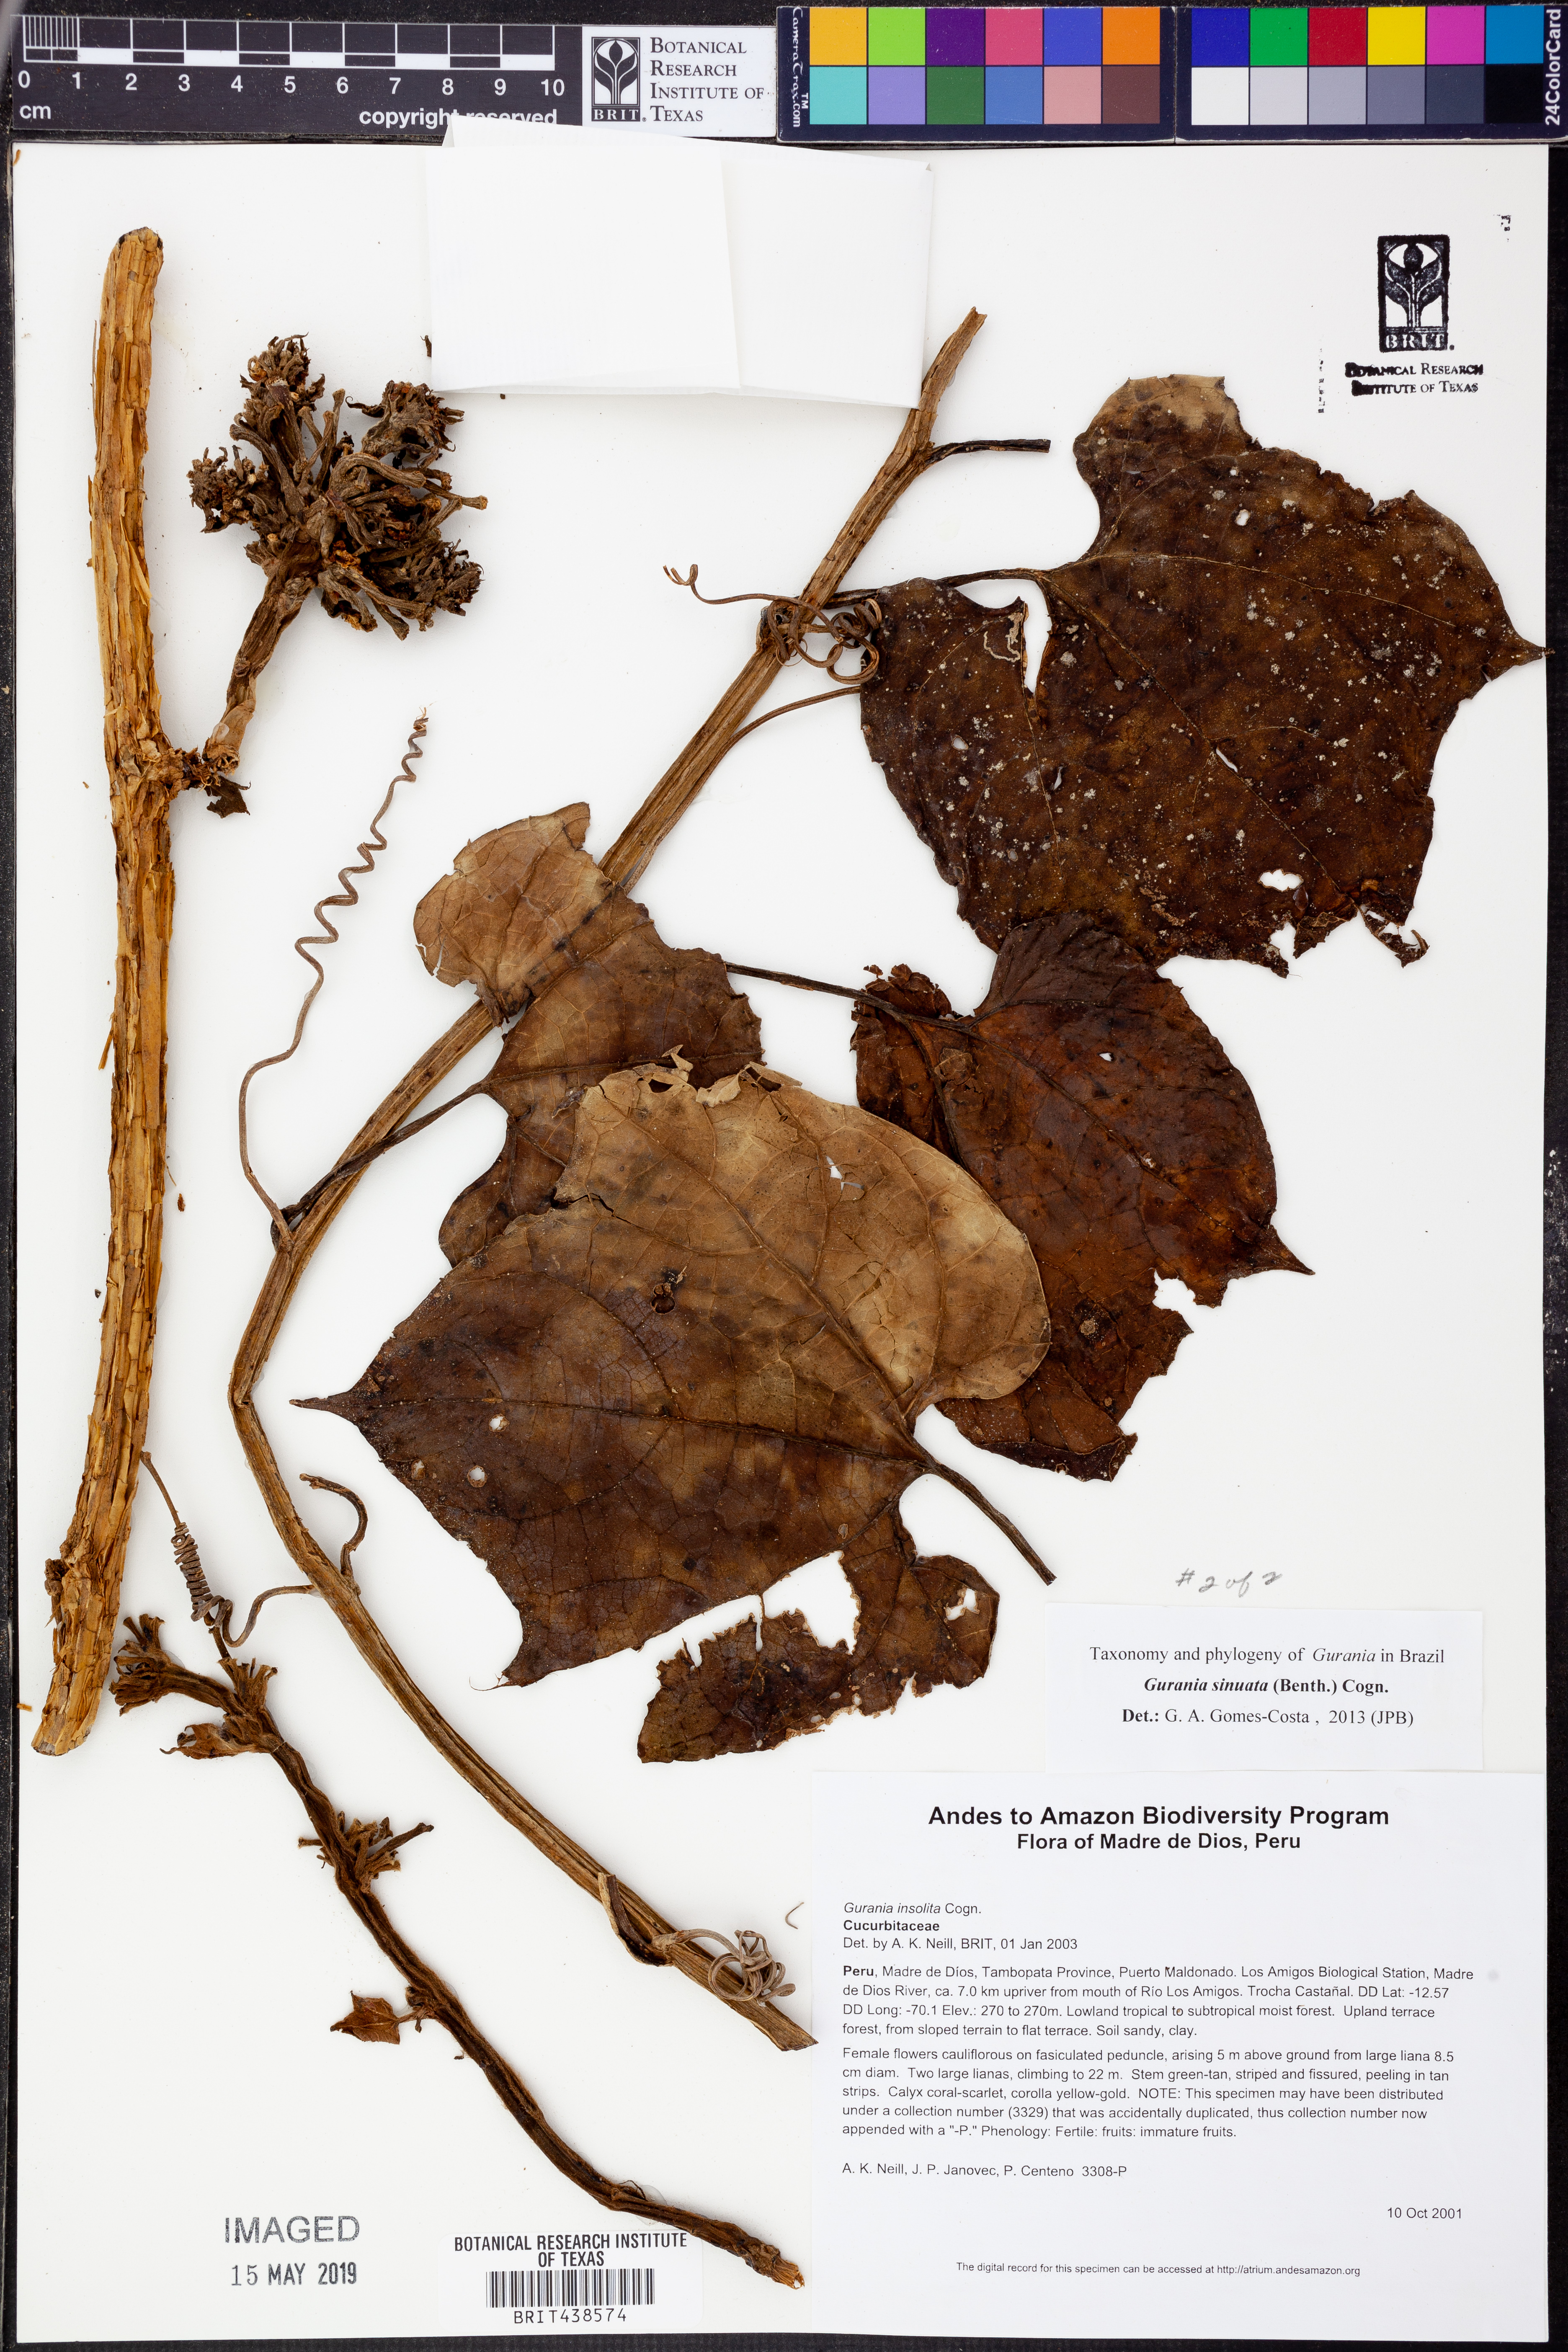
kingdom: Plantae
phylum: Tracheophyta
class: Magnoliopsida
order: Cucurbitales
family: Cucurbitaceae
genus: Gurania
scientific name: Gurania
